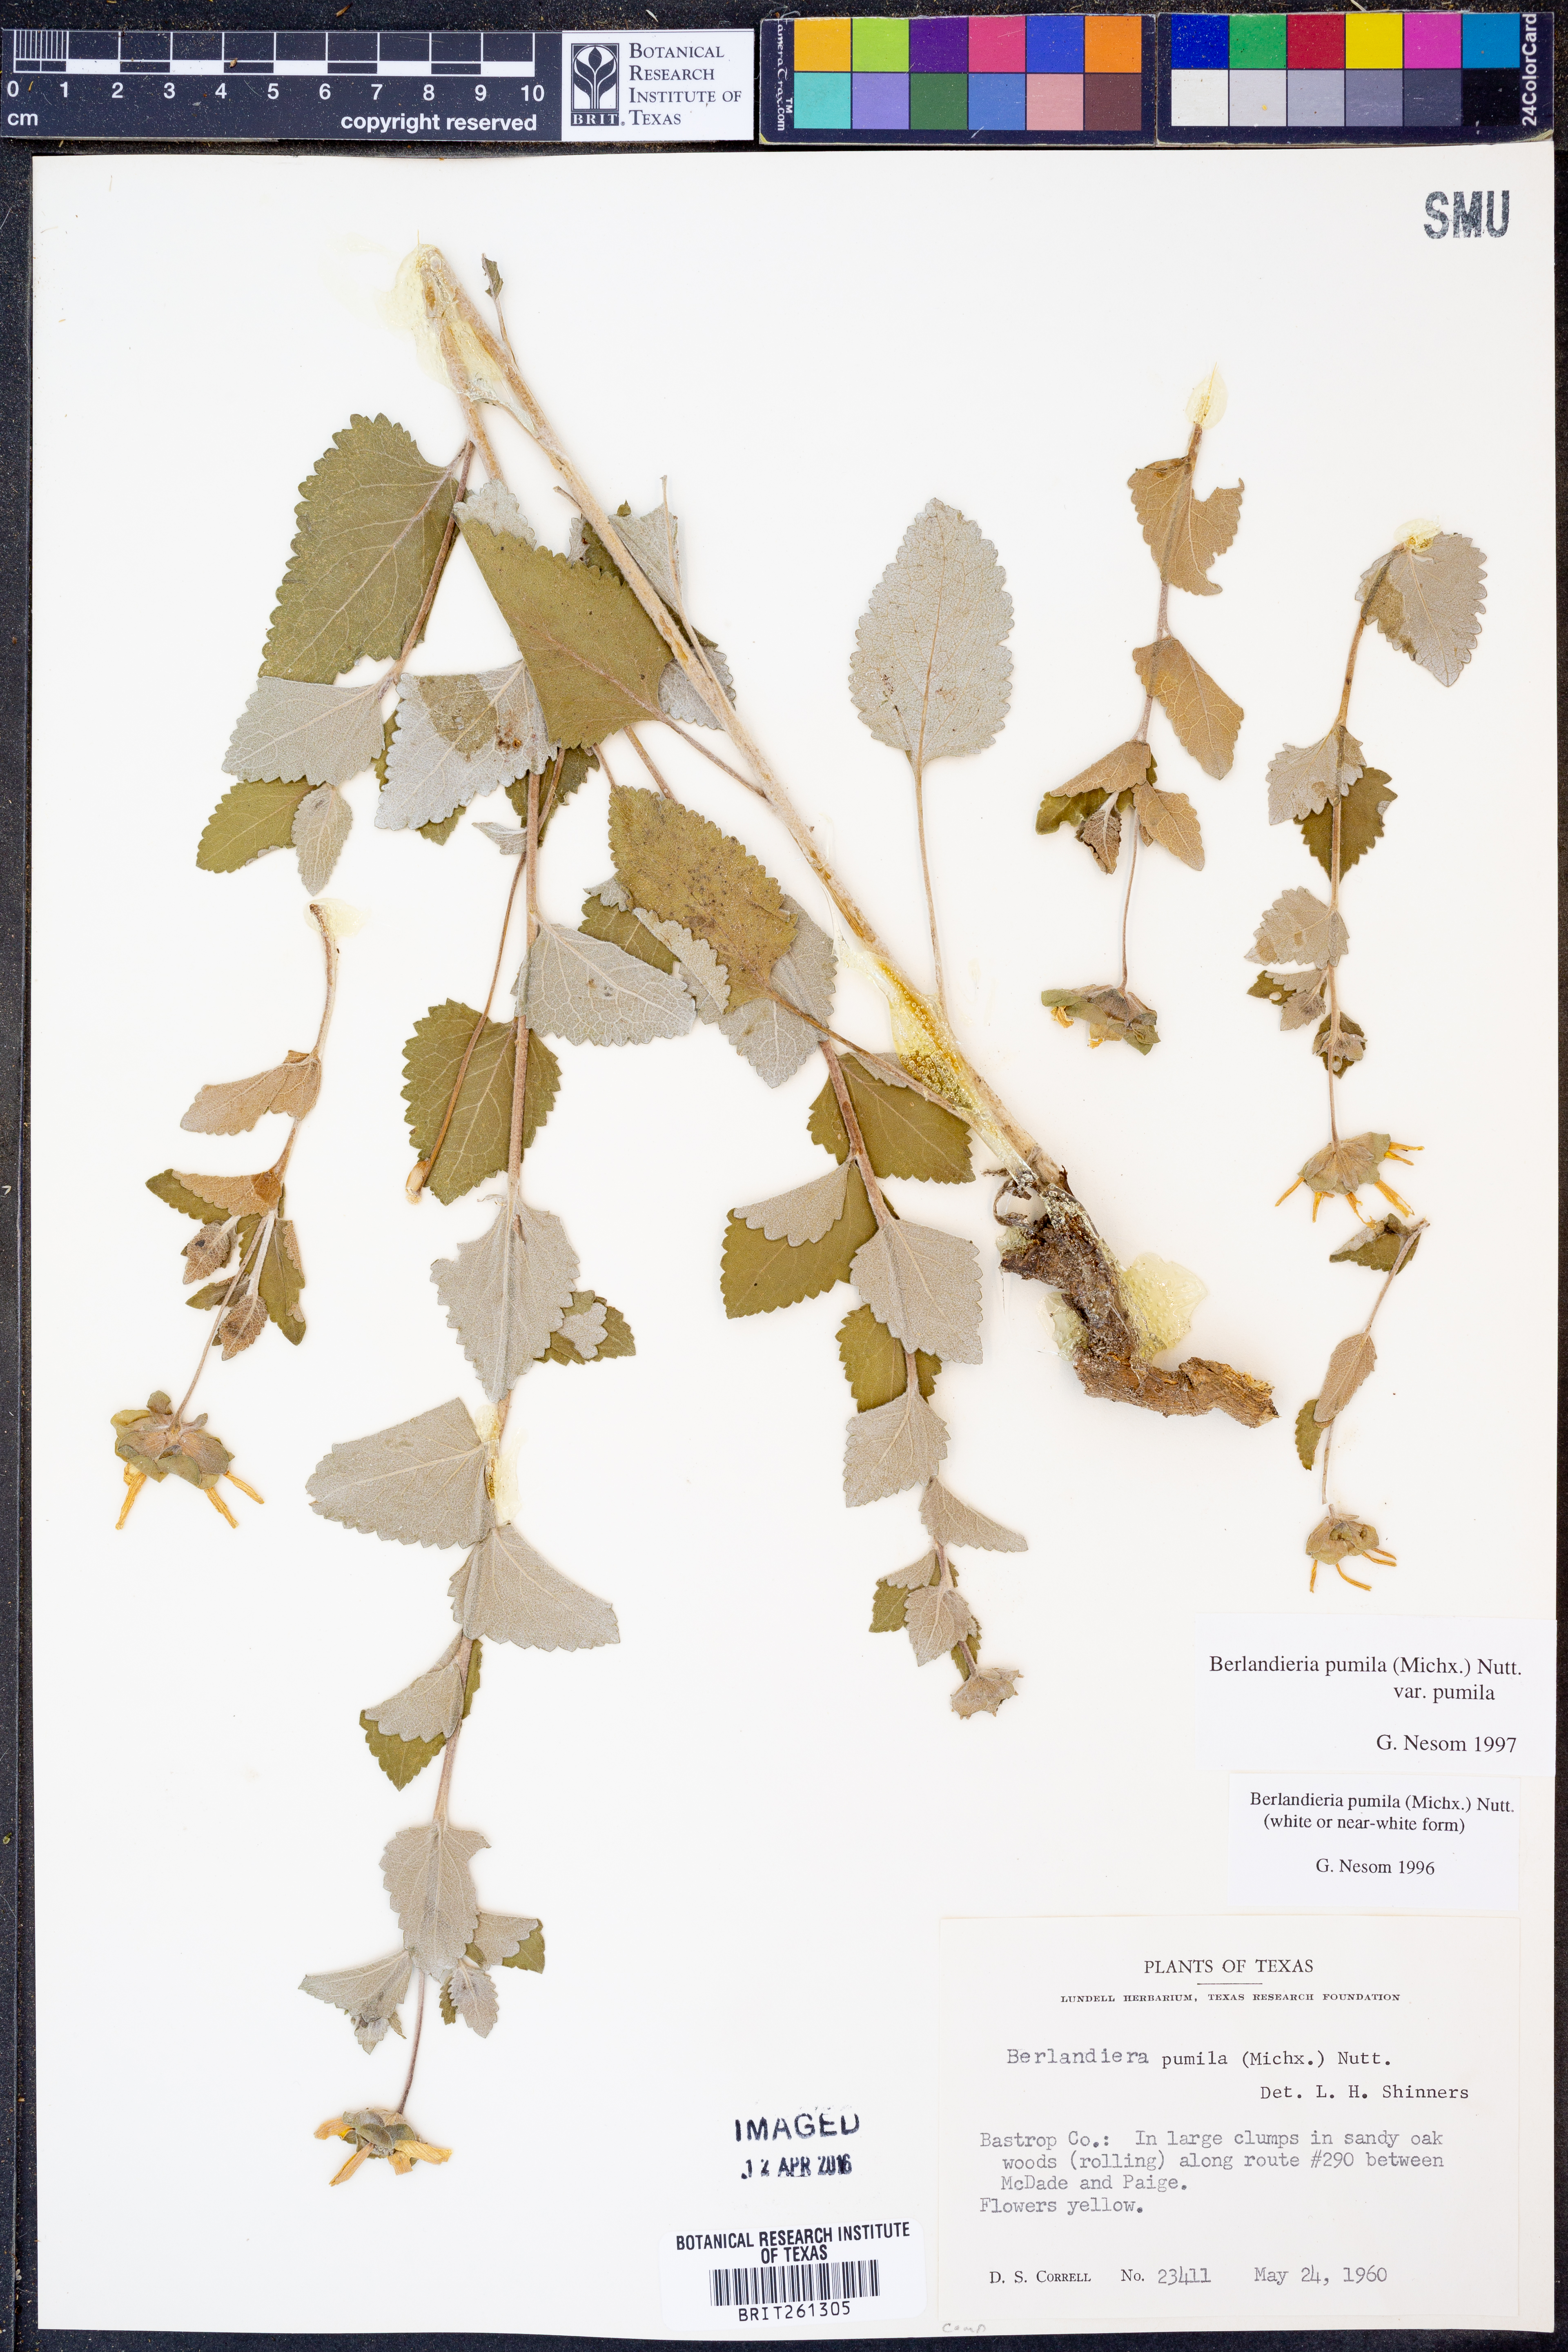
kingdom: Plantae
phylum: Tracheophyta
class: Magnoliopsida
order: Asterales
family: Asteraceae
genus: Berlandiera
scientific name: Berlandiera pumila
